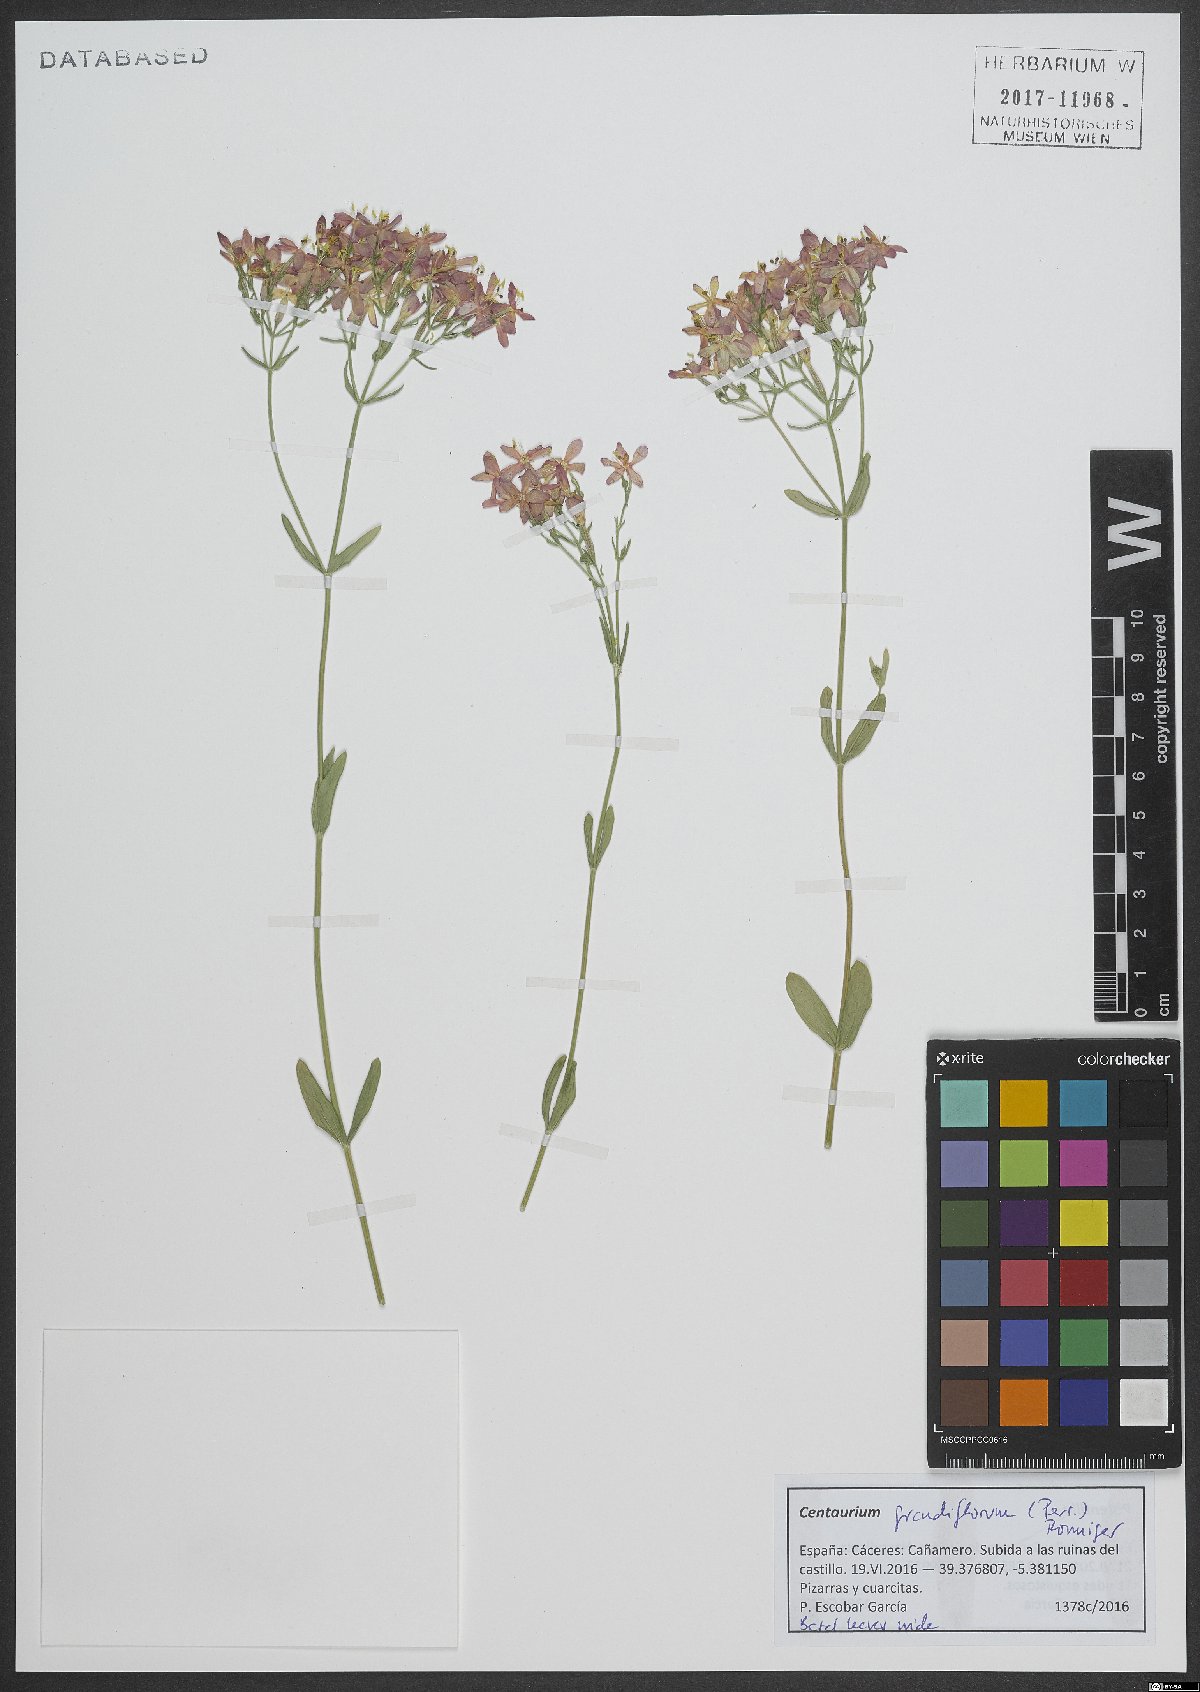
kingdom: Plantae
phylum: Tracheophyta
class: Magnoliopsida
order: Gentianales
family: Gentianaceae
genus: Centaurium
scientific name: Centaurium grandiflorum
